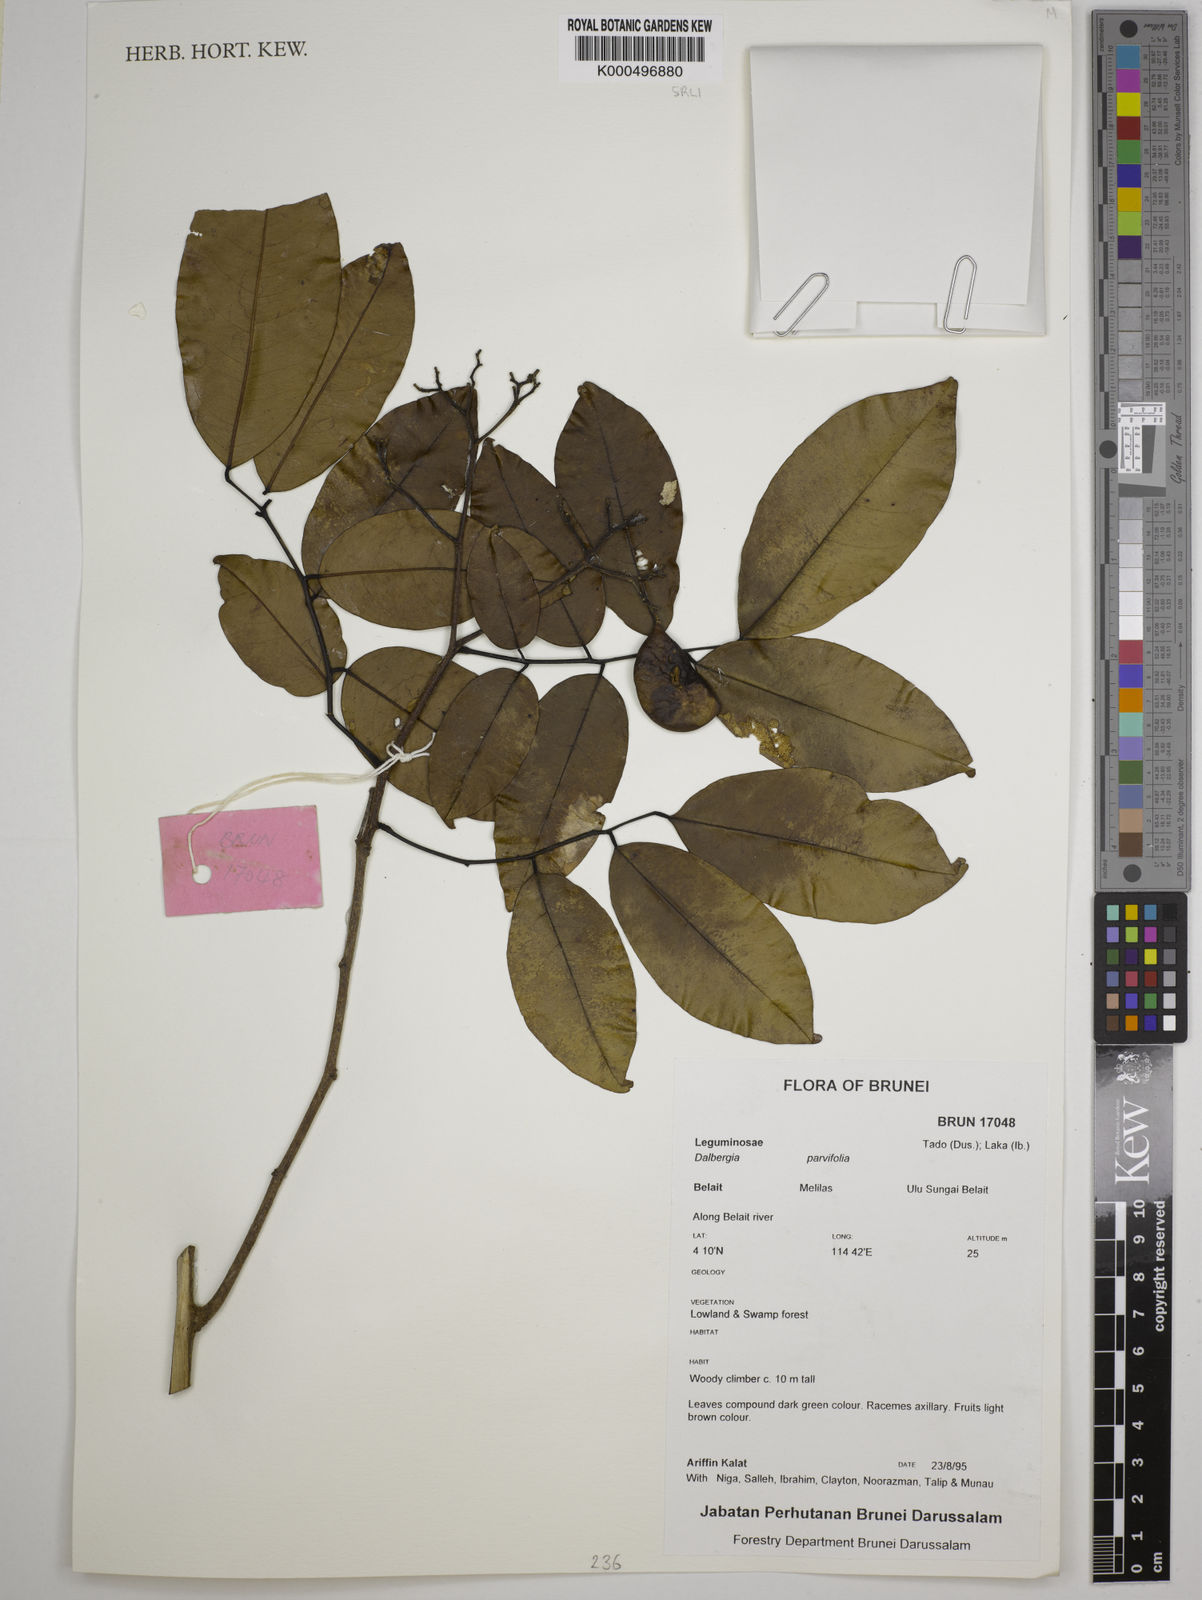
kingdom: Plantae
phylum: Tracheophyta
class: Magnoliopsida
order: Fabales
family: Fabaceae
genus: Dalbergia
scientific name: Dalbergia parviflora
